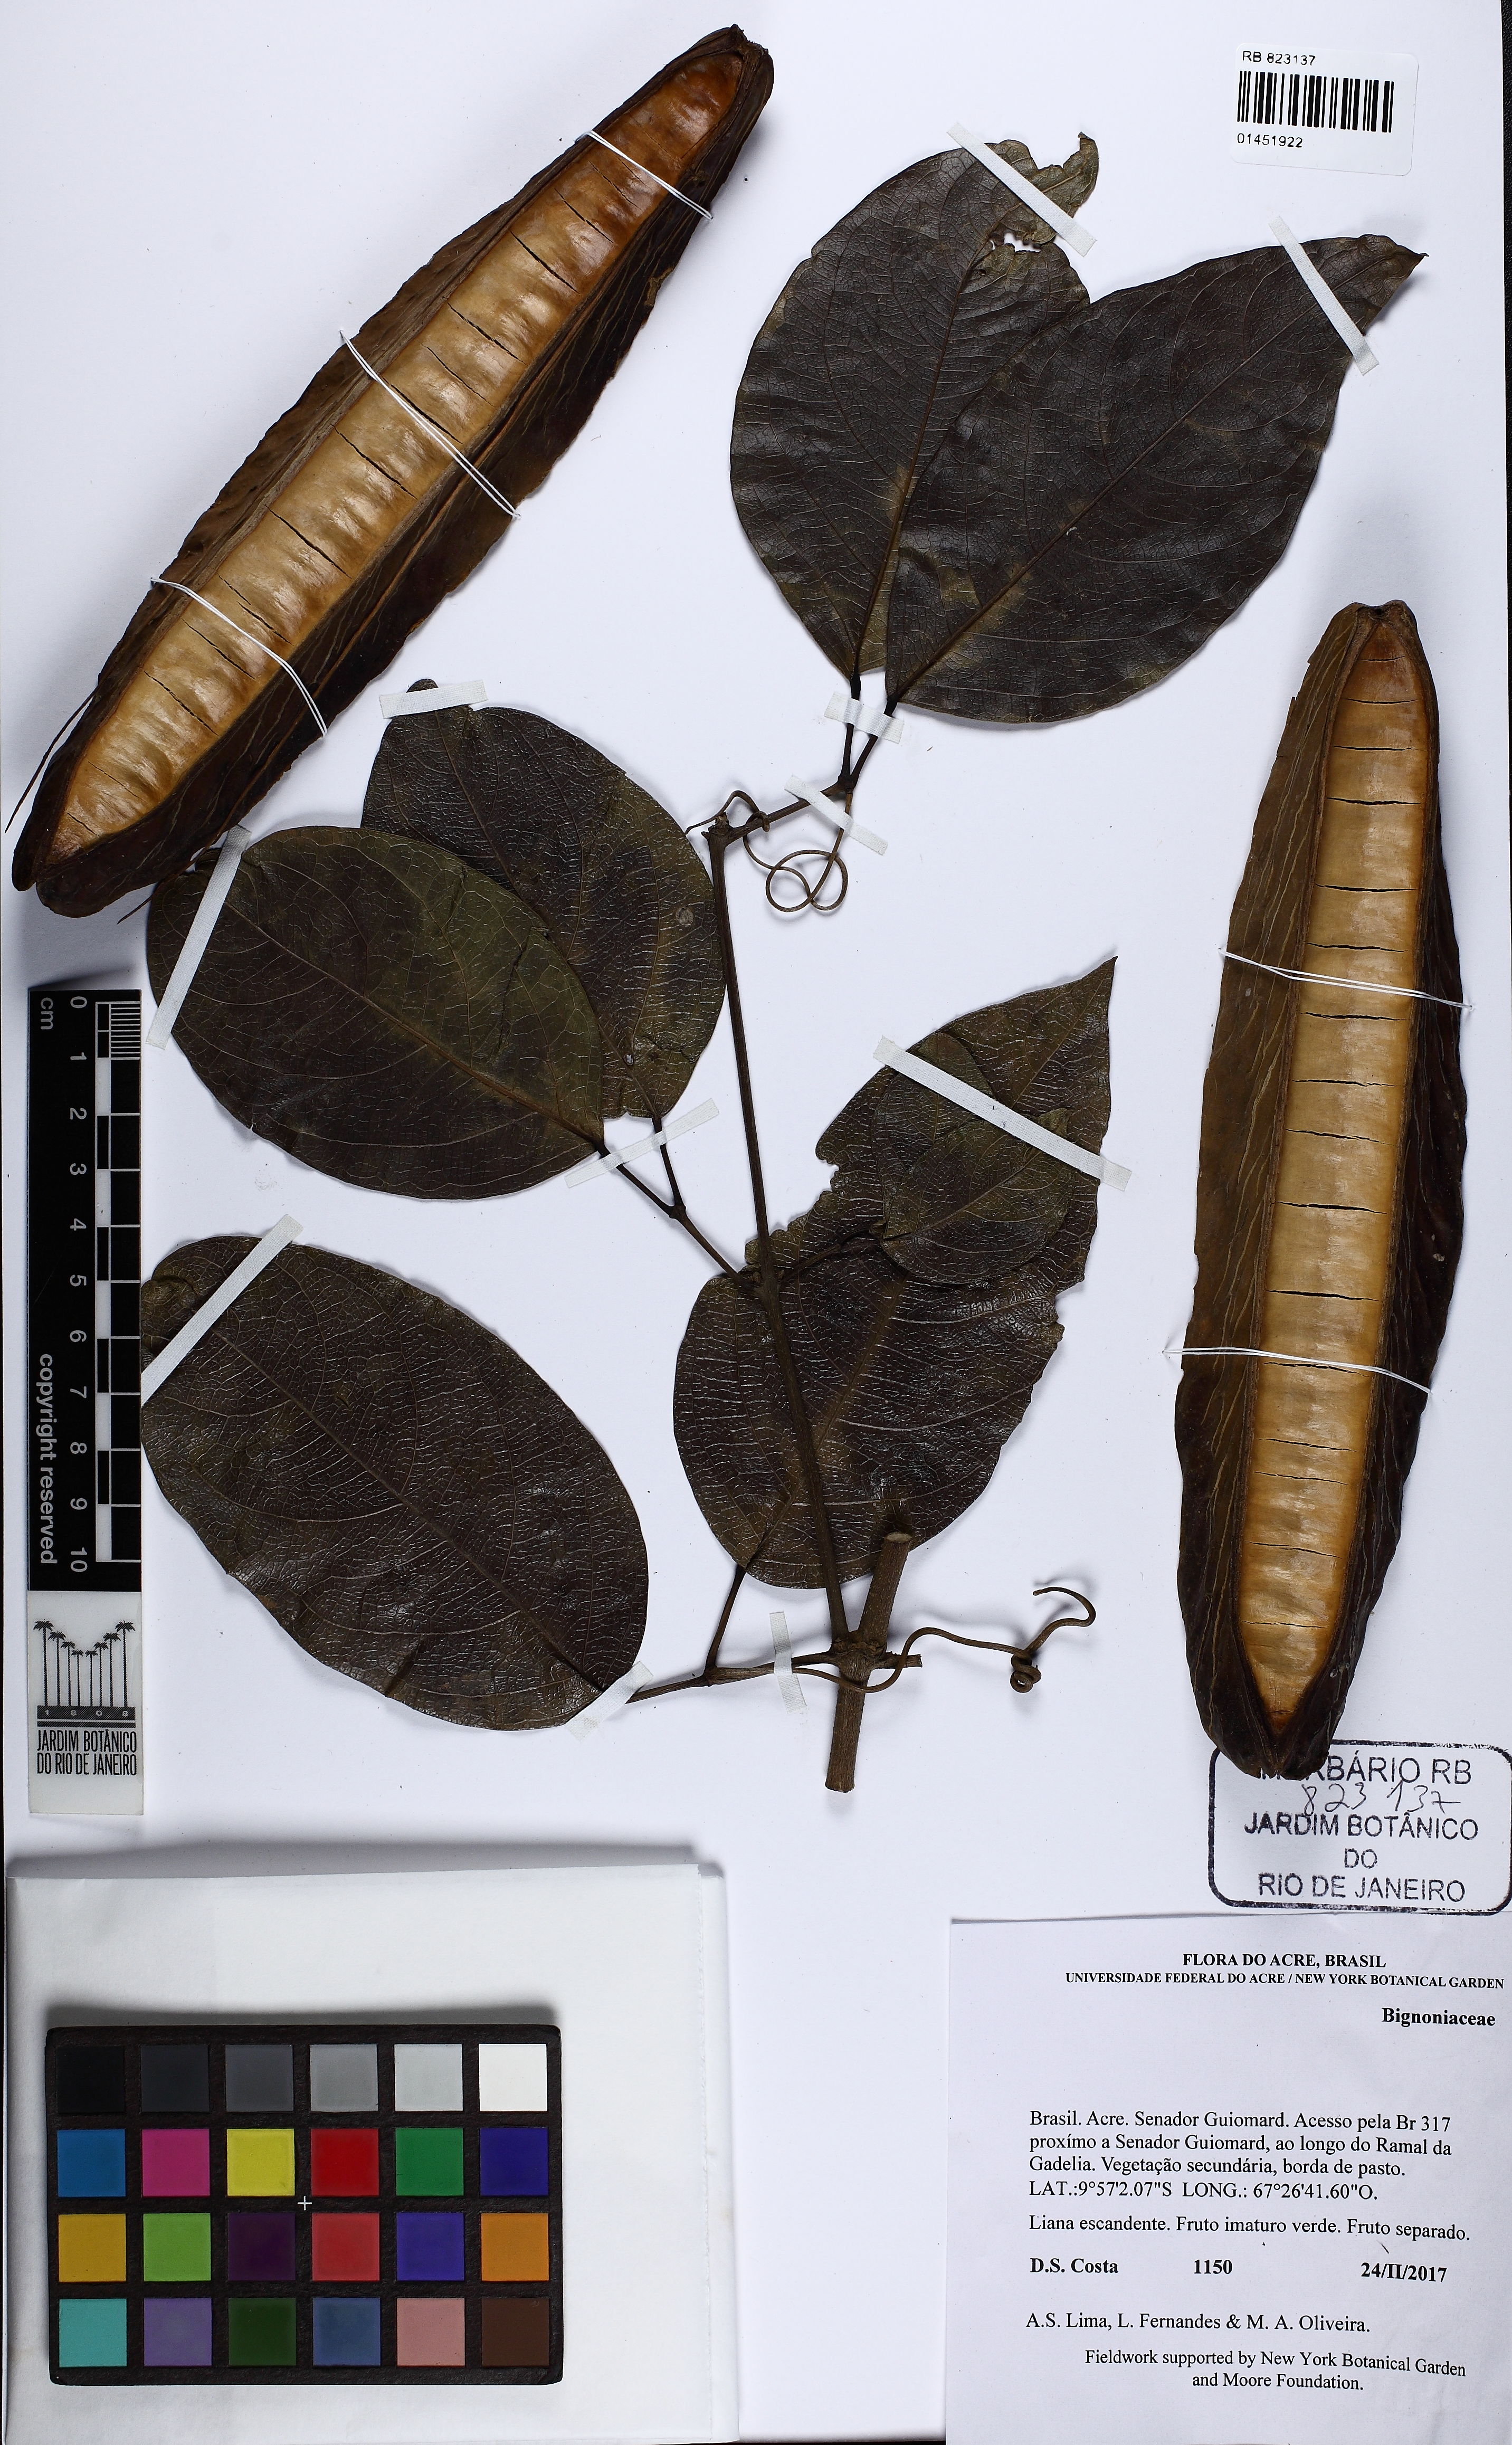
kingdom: Plantae
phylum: Tracheophyta
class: Magnoliopsida
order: Lamiales
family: Bignoniaceae
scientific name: Bignoniaceae
